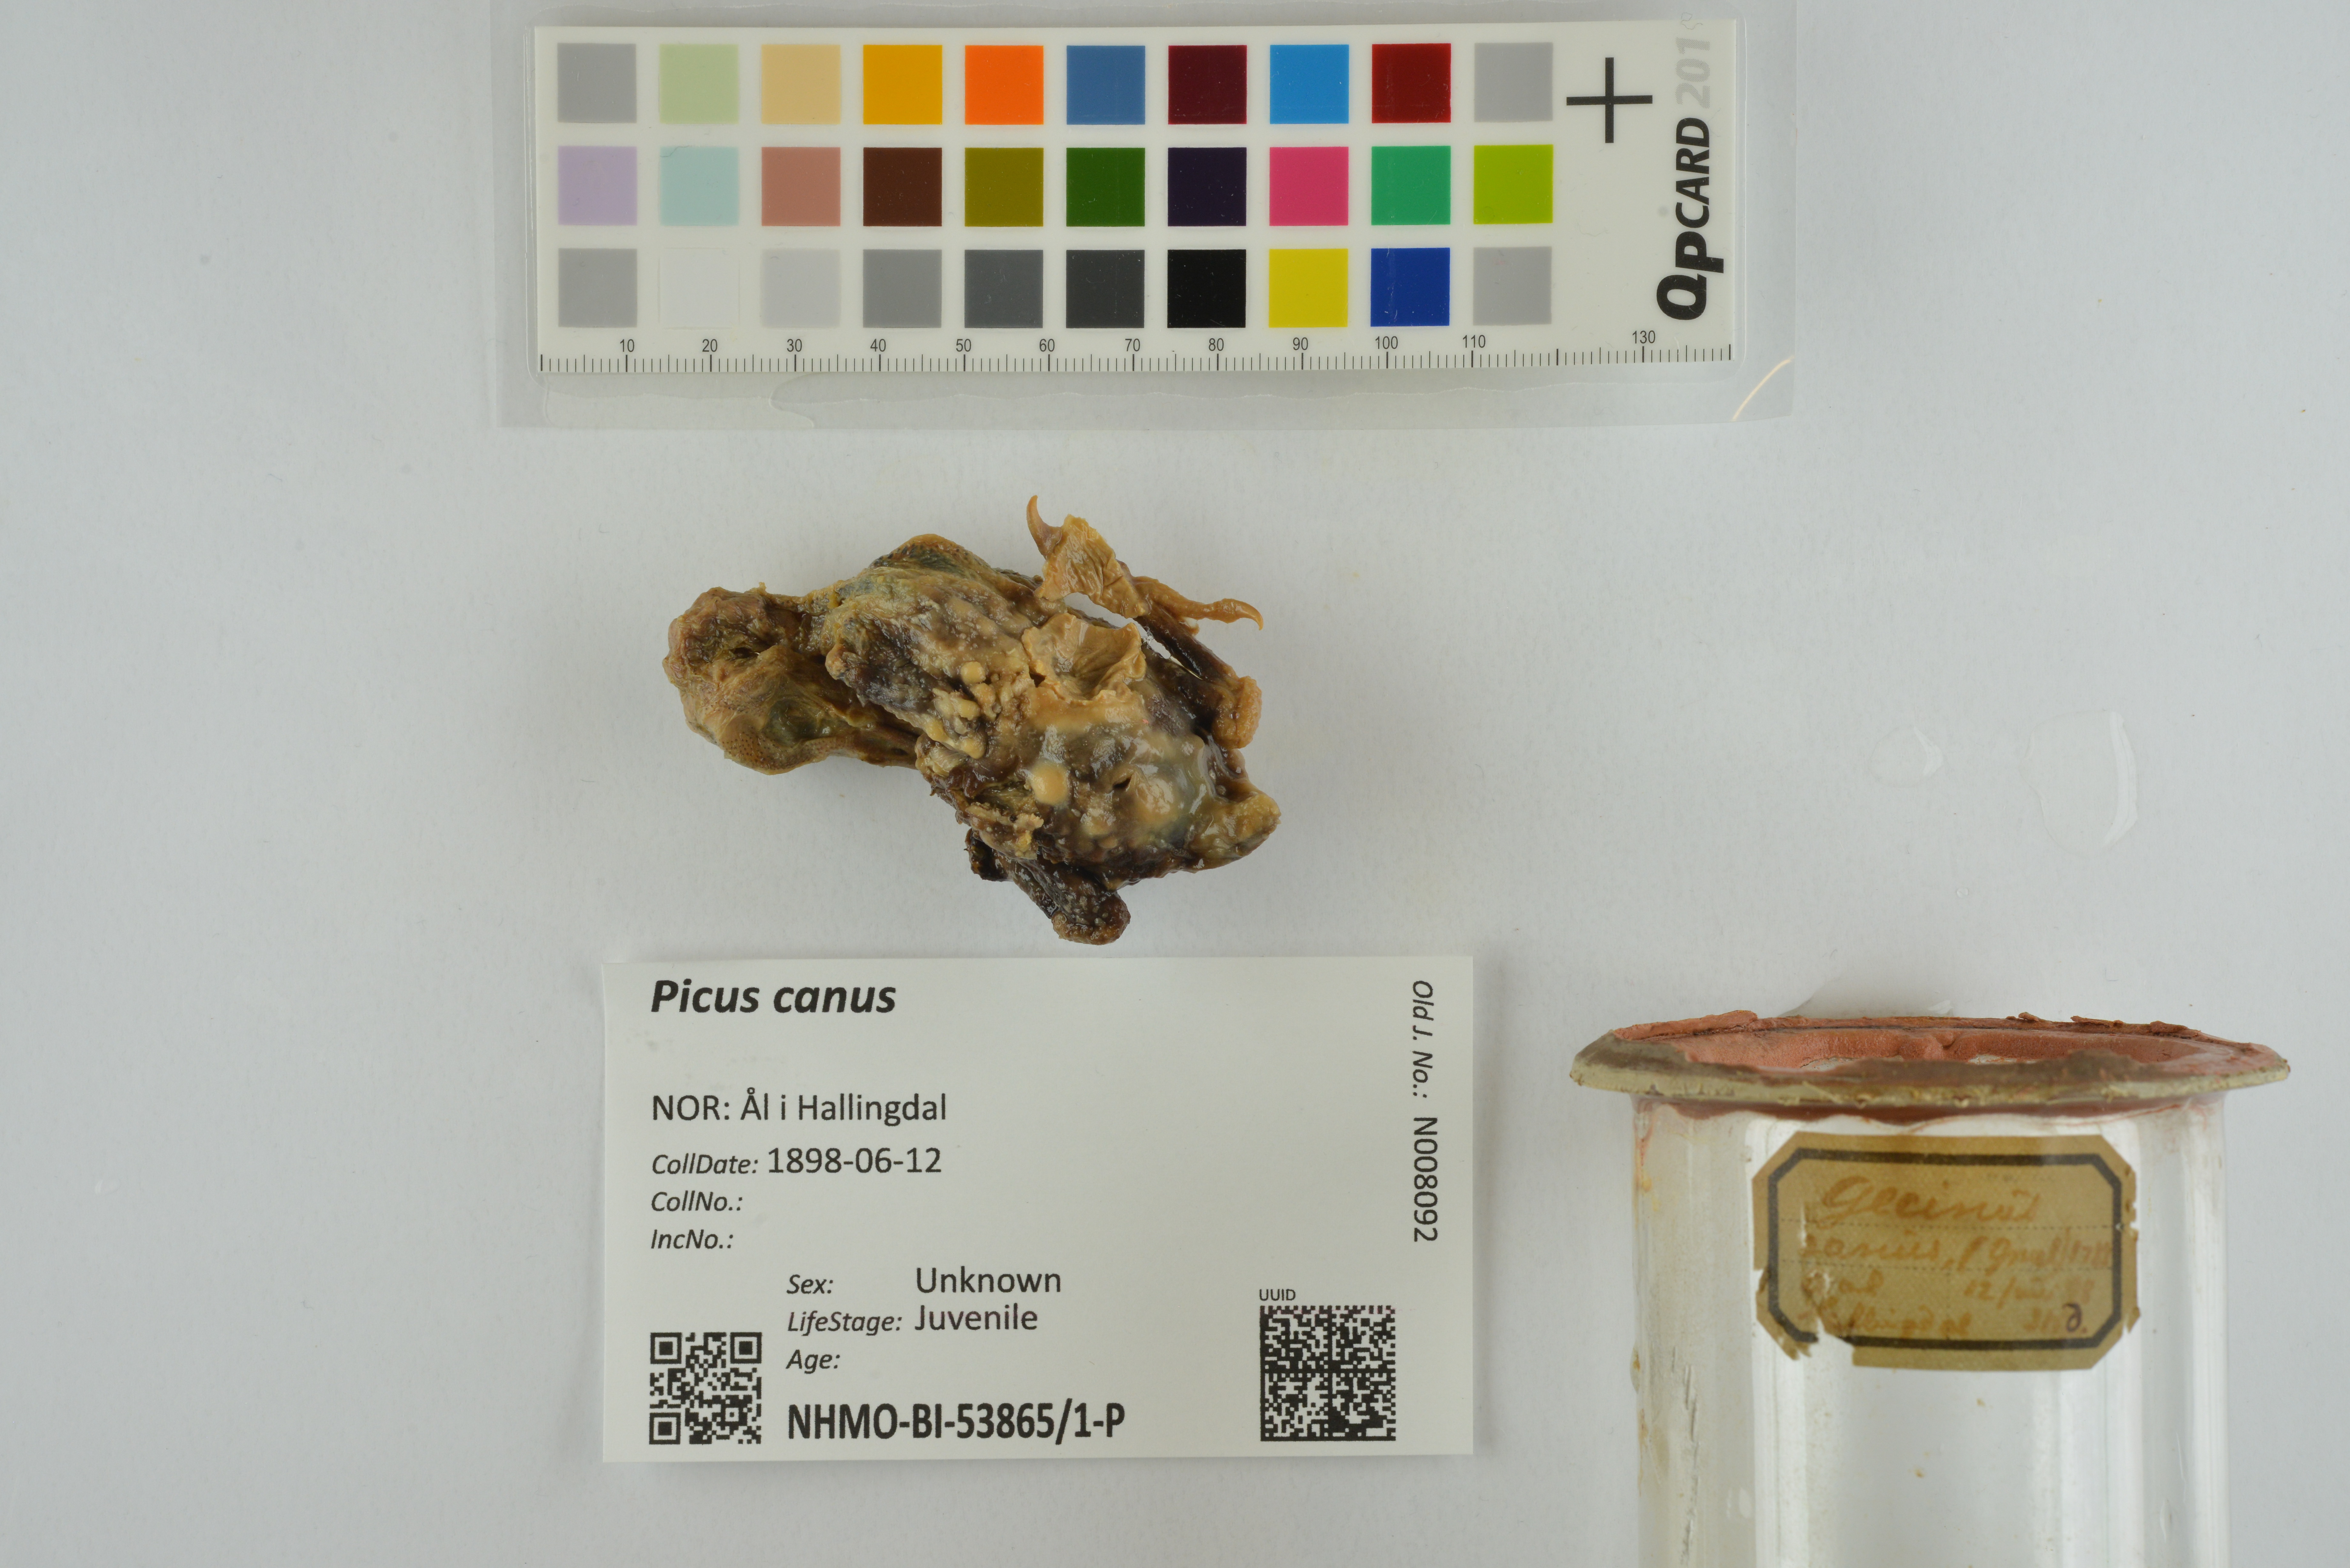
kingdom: Animalia
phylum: Chordata
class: Aves
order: Piciformes
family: Picidae
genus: Picus
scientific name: Picus canus
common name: Grey-headed woodpecker
